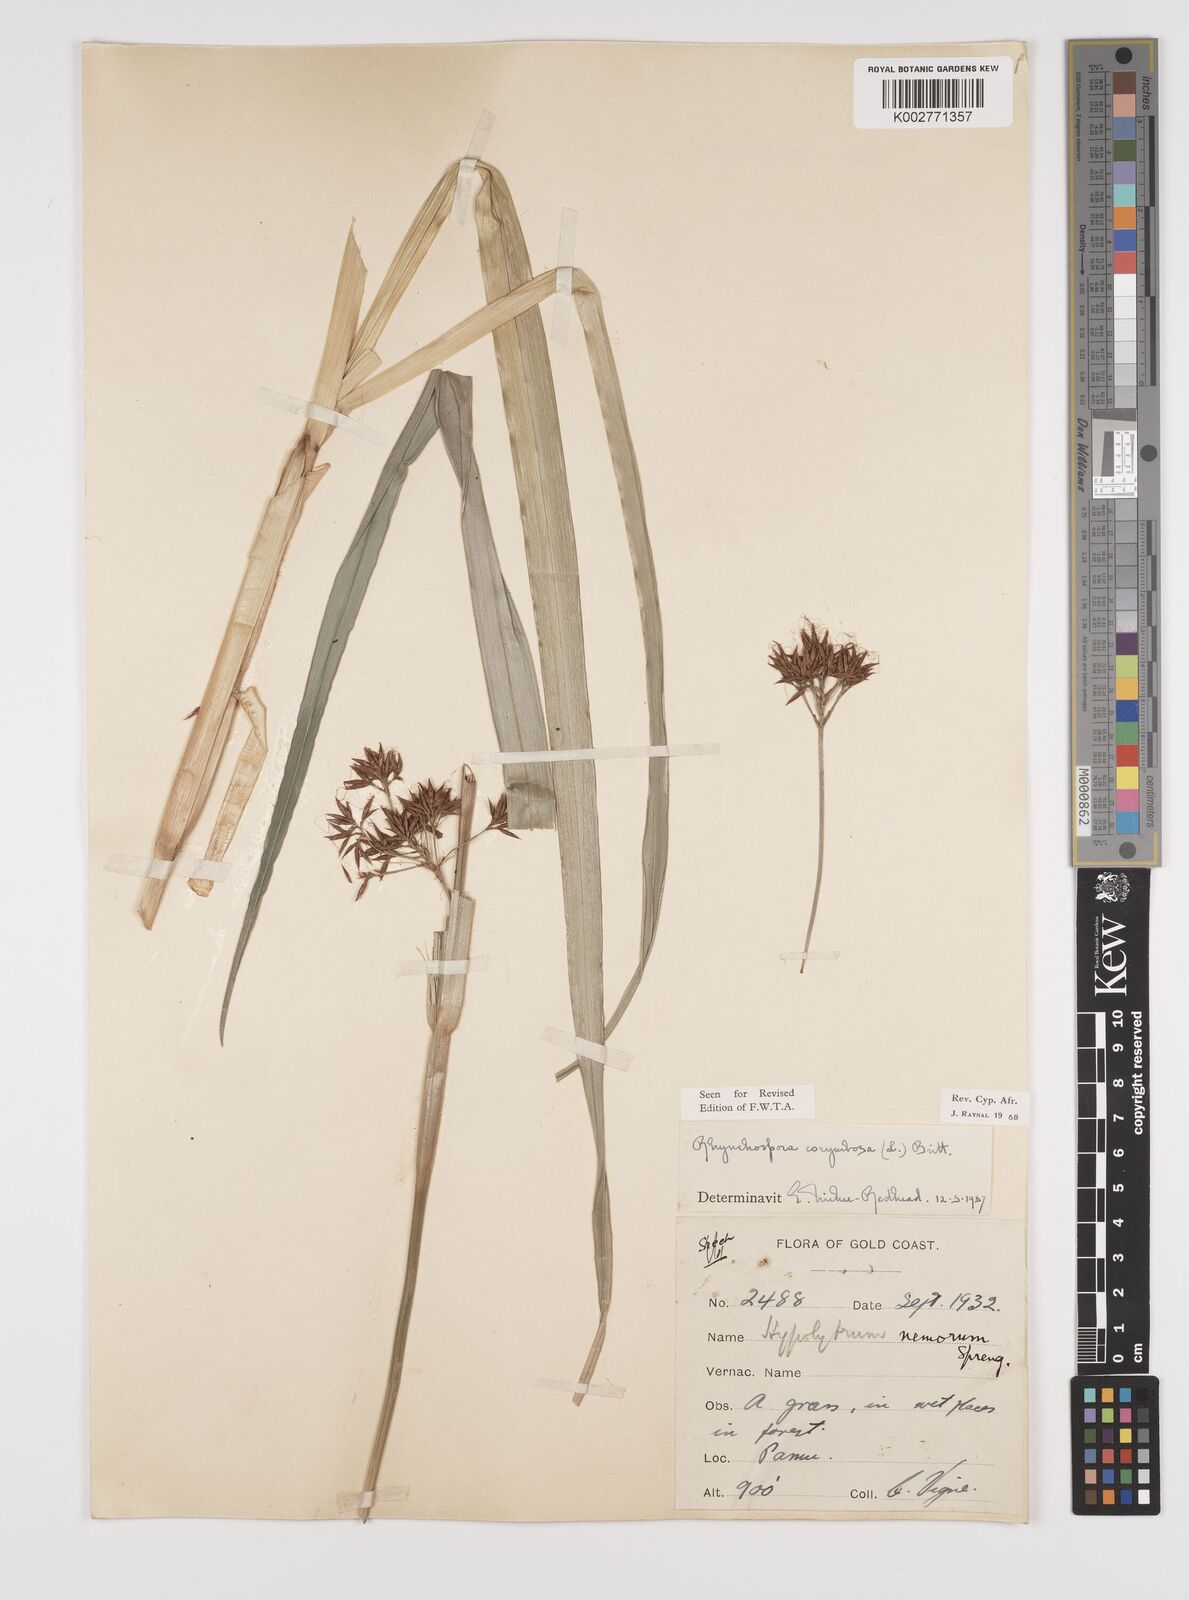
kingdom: Plantae
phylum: Tracheophyta
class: Liliopsida
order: Poales
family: Cyperaceae
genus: Rhynchospora
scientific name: Rhynchospora corymbosa
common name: Golden beak sedge
